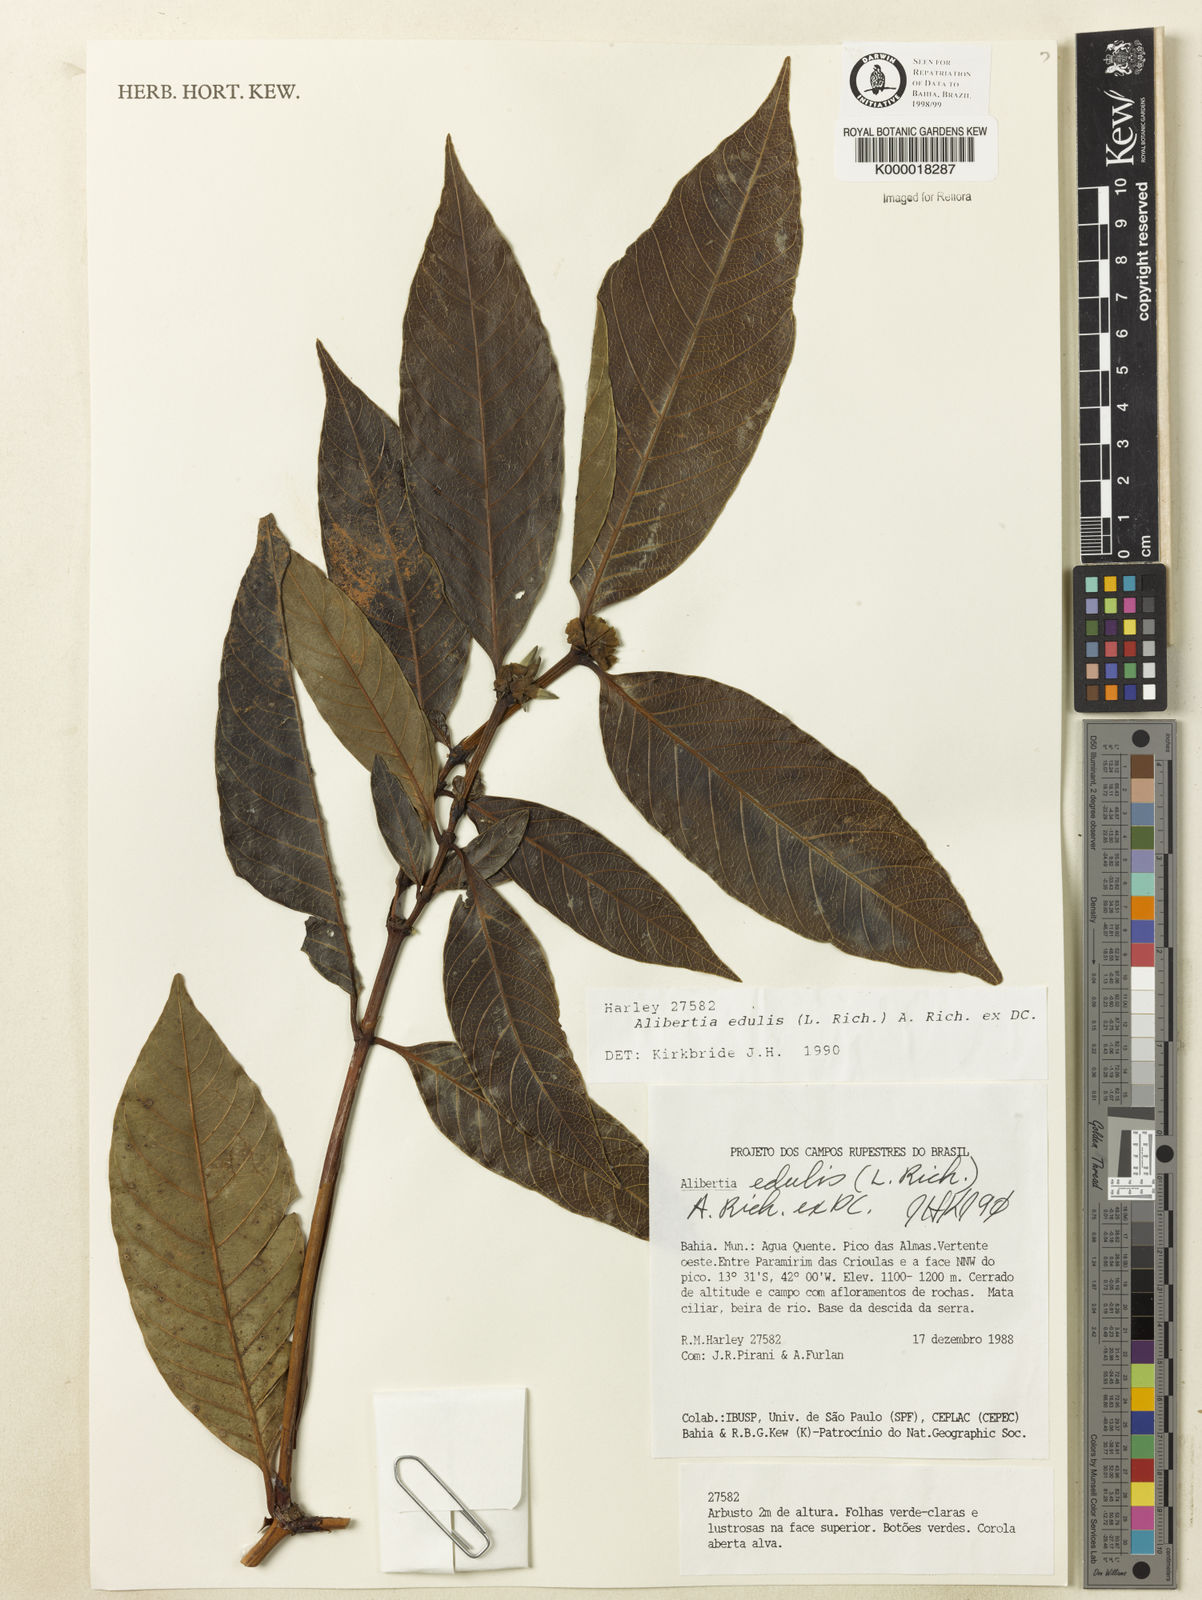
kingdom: Plantae
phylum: Tracheophyta
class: Magnoliopsida
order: Gentianales
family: Rubiaceae
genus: Alibertia
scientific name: Alibertia edulis
